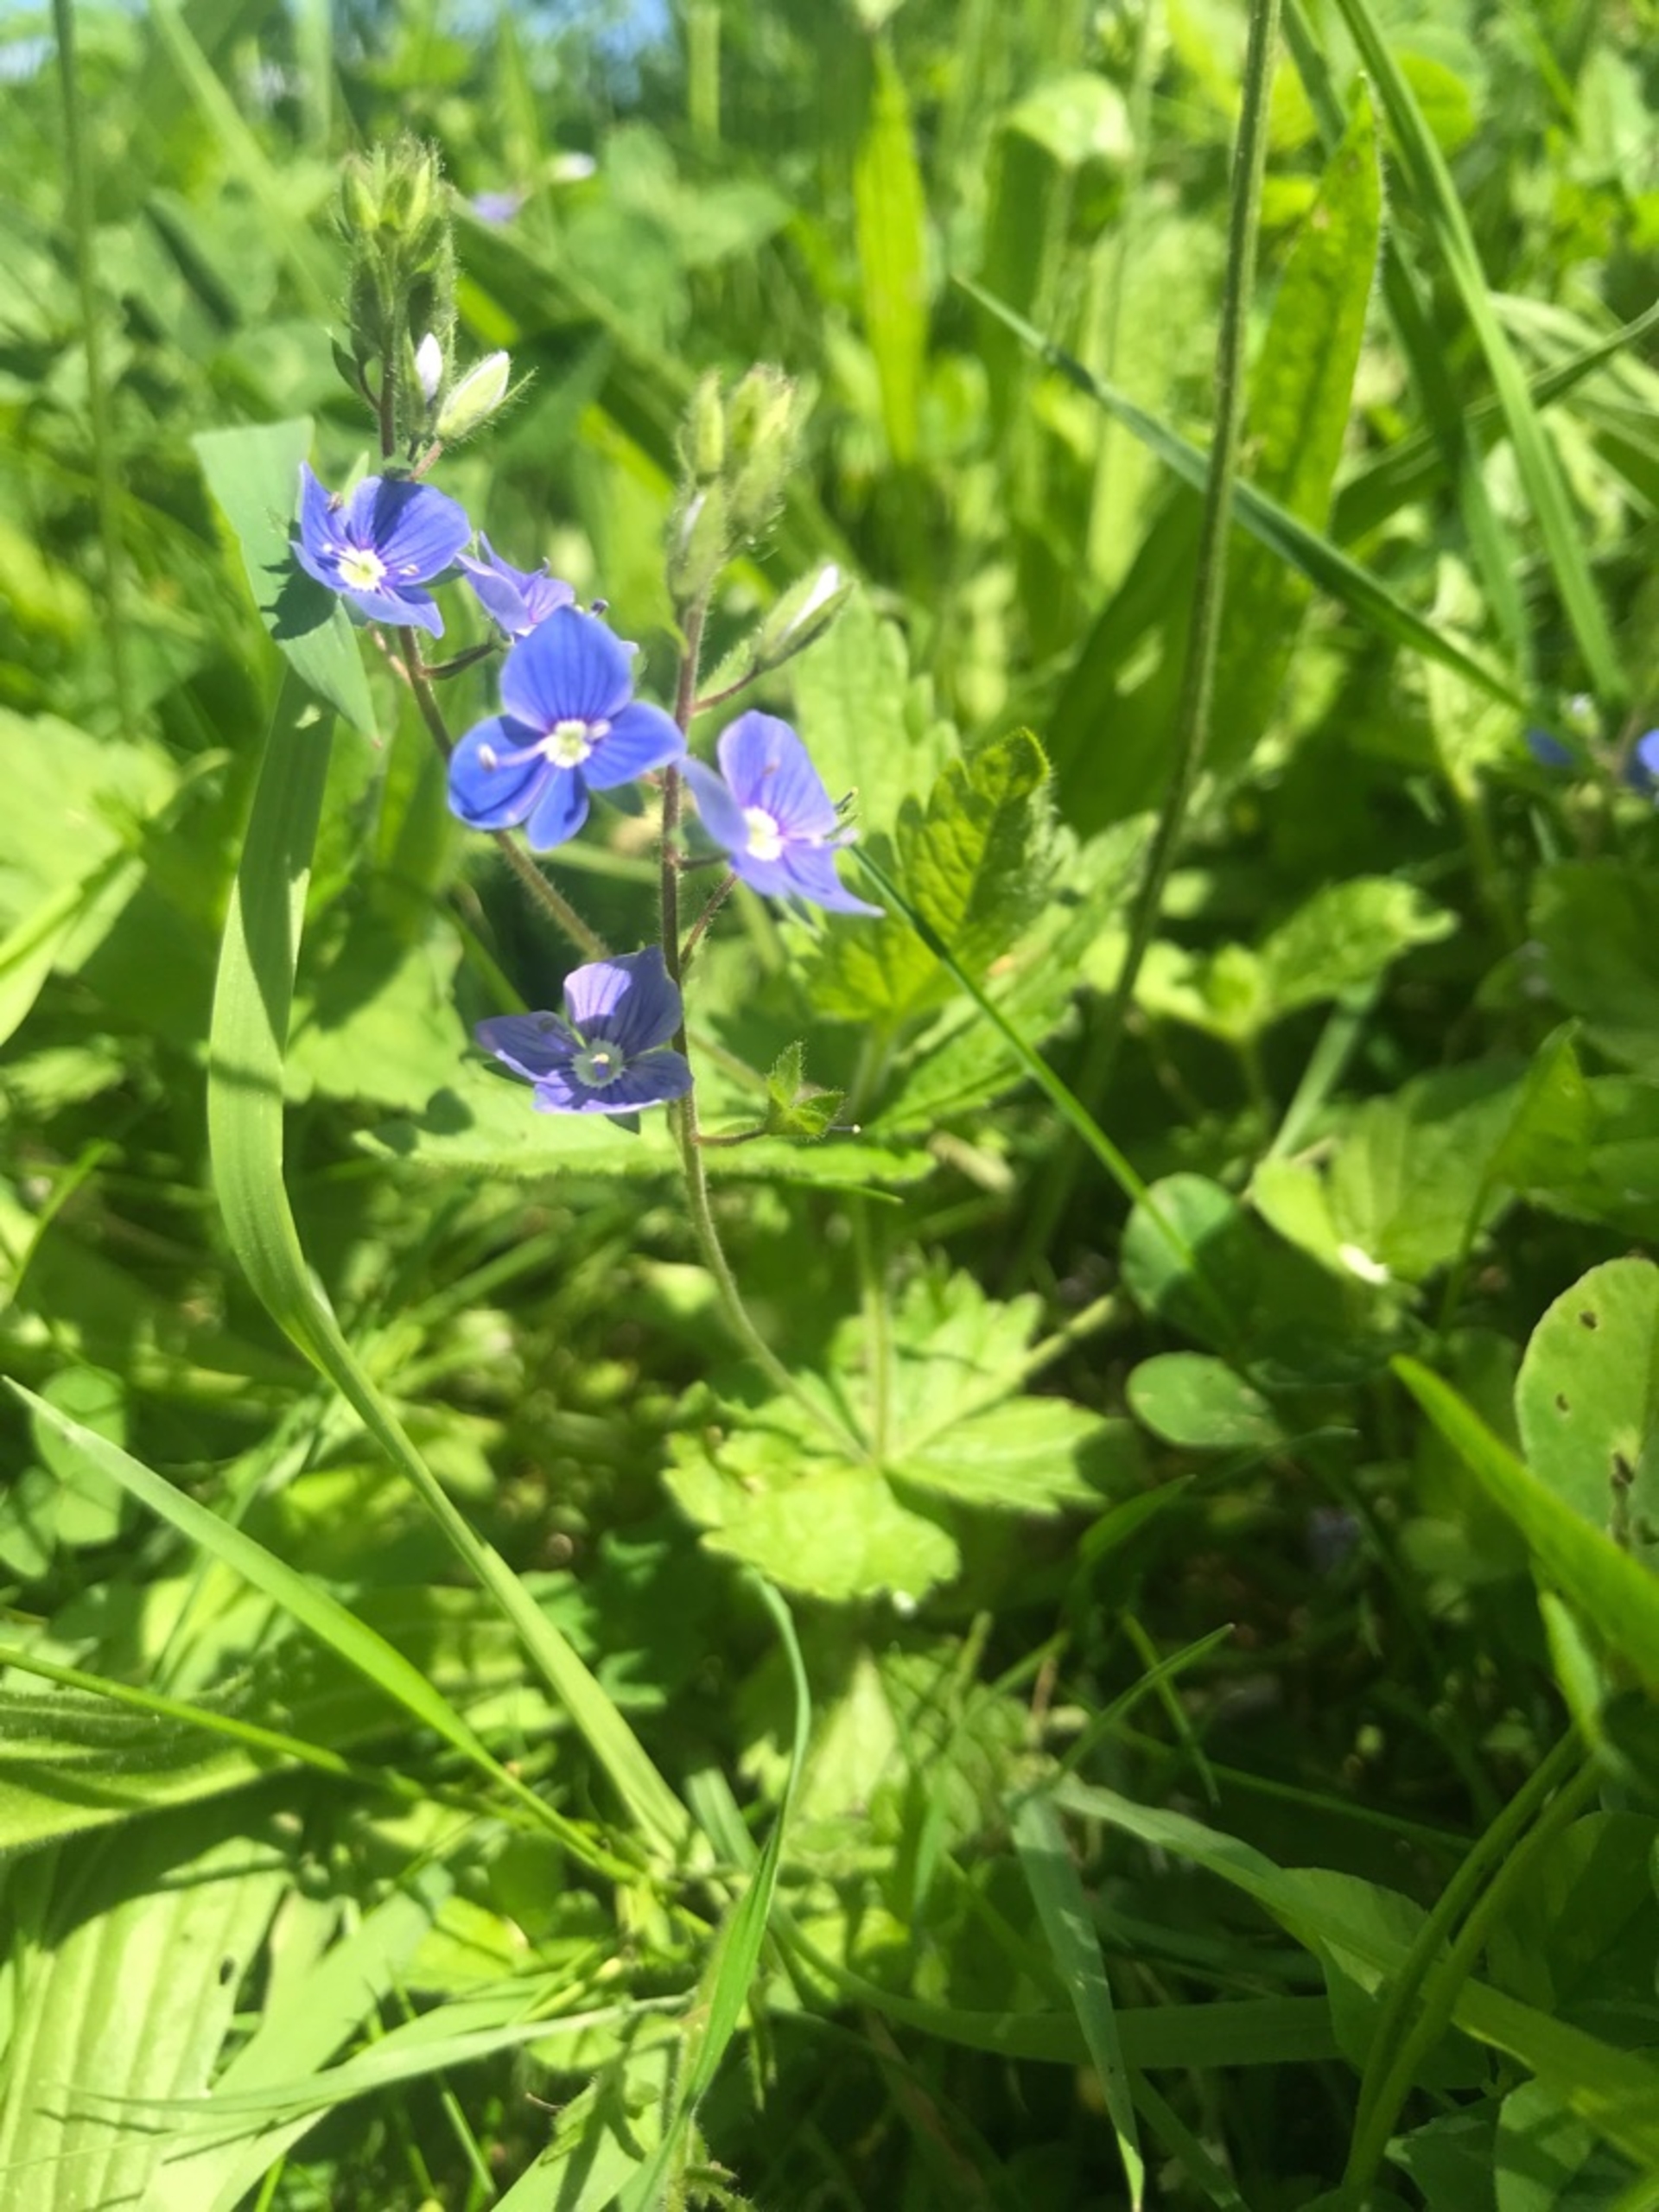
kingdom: Plantae
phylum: Tracheophyta
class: Magnoliopsida
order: Lamiales
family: Plantaginaceae
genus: Veronica
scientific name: Veronica chamaedrys
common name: Tveskægget ærenpris
